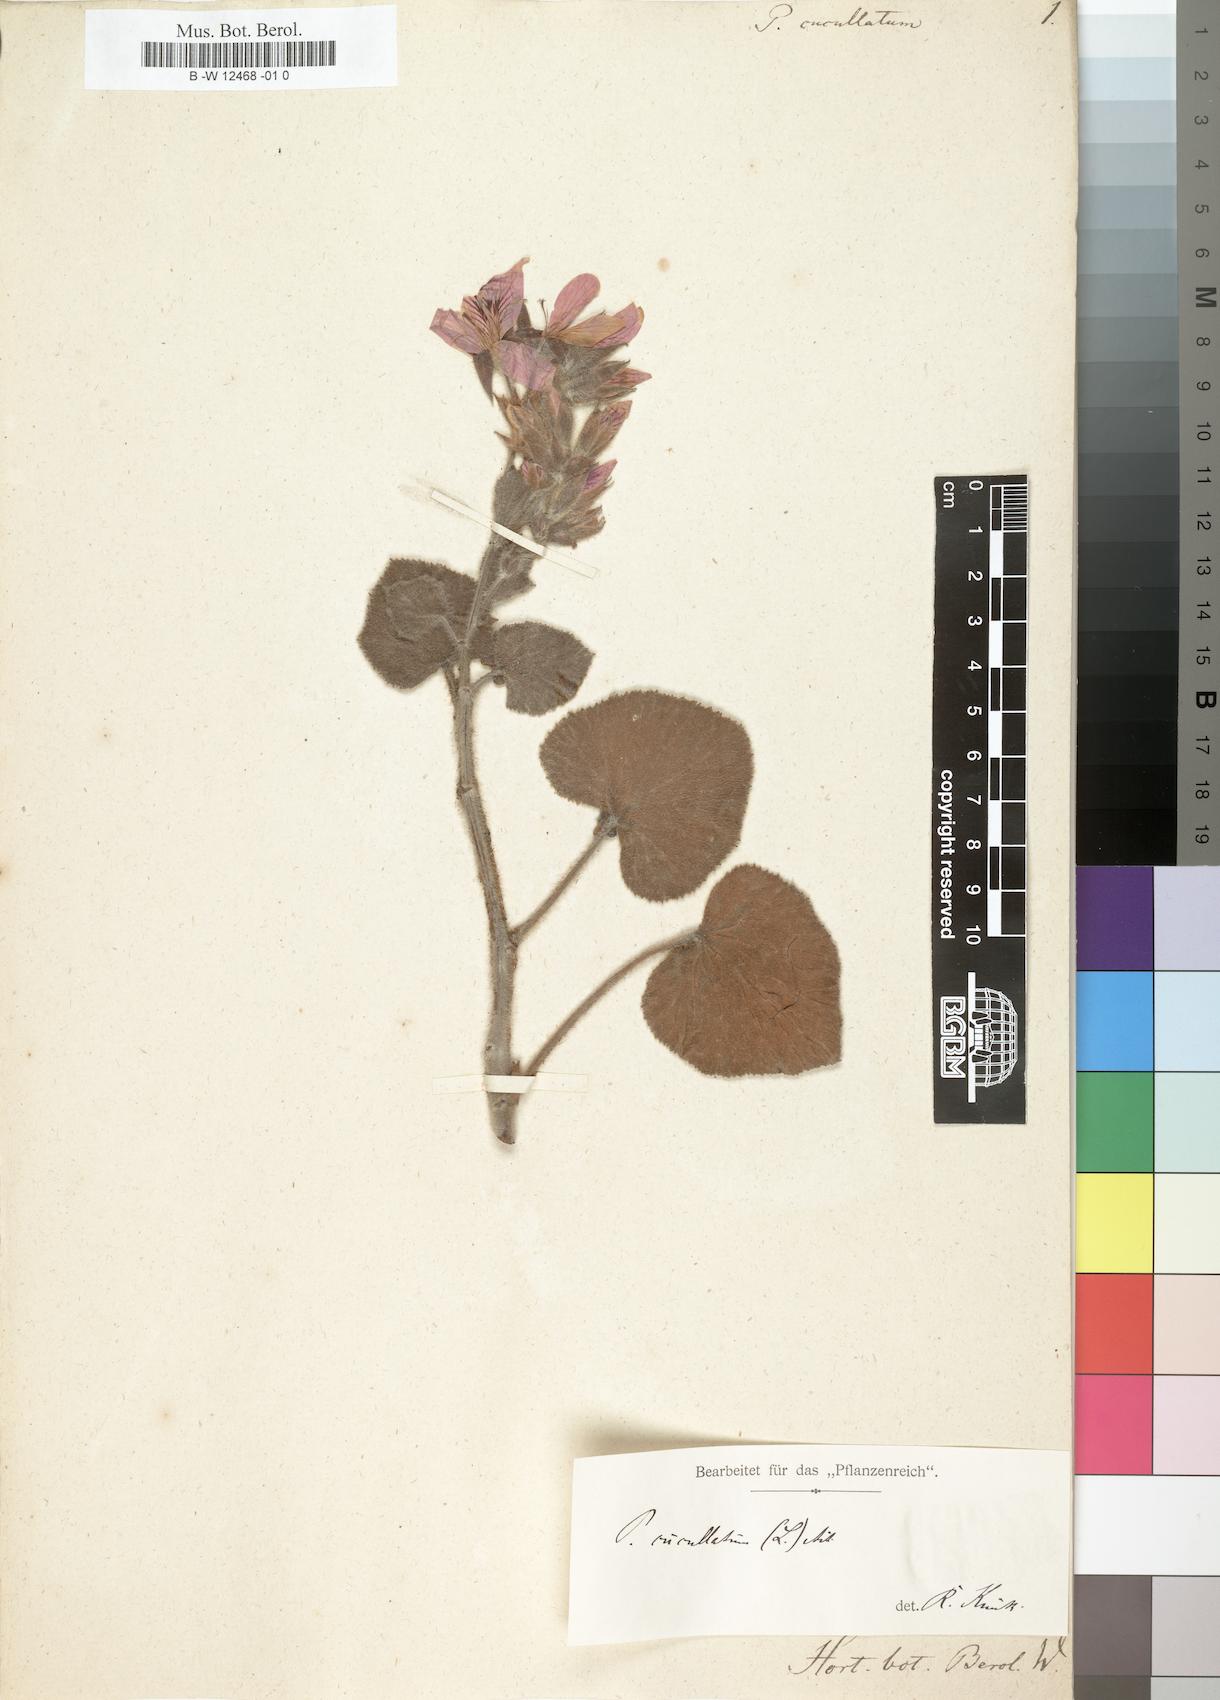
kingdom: Plantae
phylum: Tracheophyta
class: Magnoliopsida
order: Geraniales
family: Geraniaceae
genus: Pelargonium
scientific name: Pelargonium cucullatum
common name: Tree pelargonium
